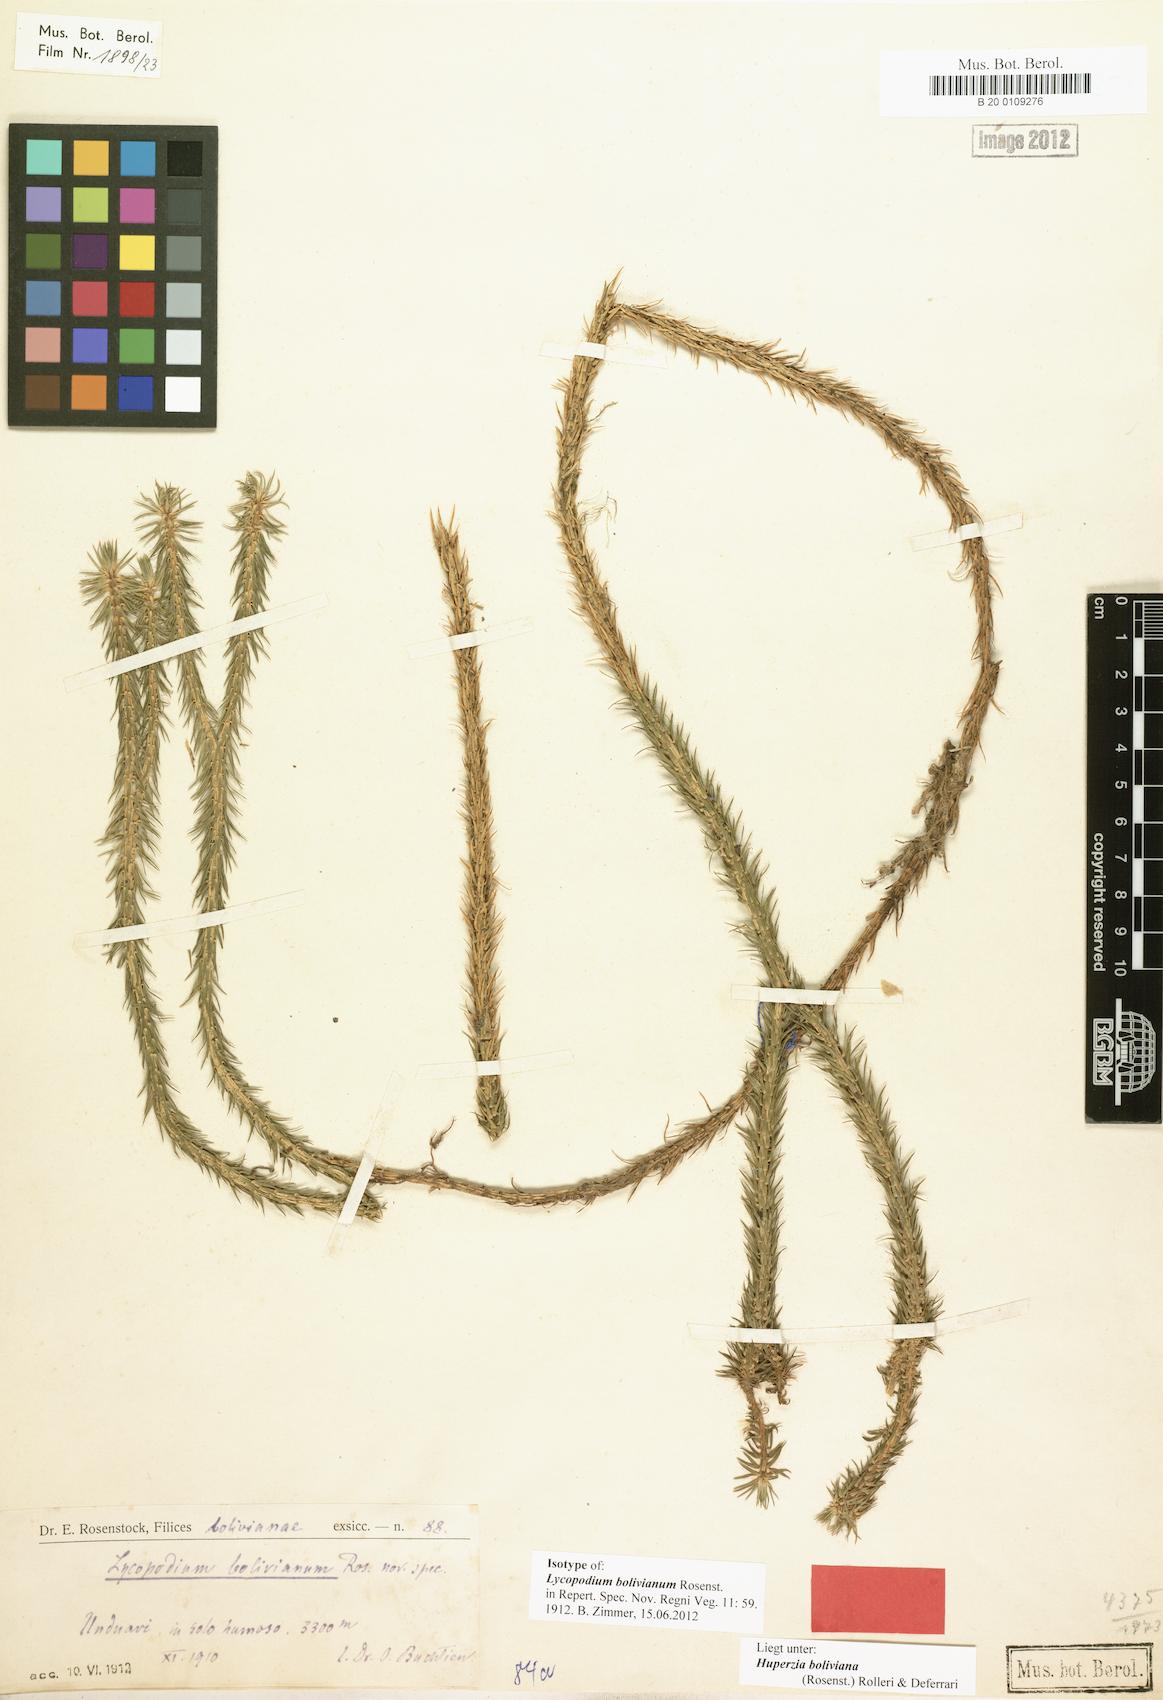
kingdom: Plantae
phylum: Tracheophyta
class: Lycopodiopsida
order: Lycopodiales
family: Lycopodiaceae
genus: Phlegmariurus
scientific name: Phlegmariurus hippurideus
